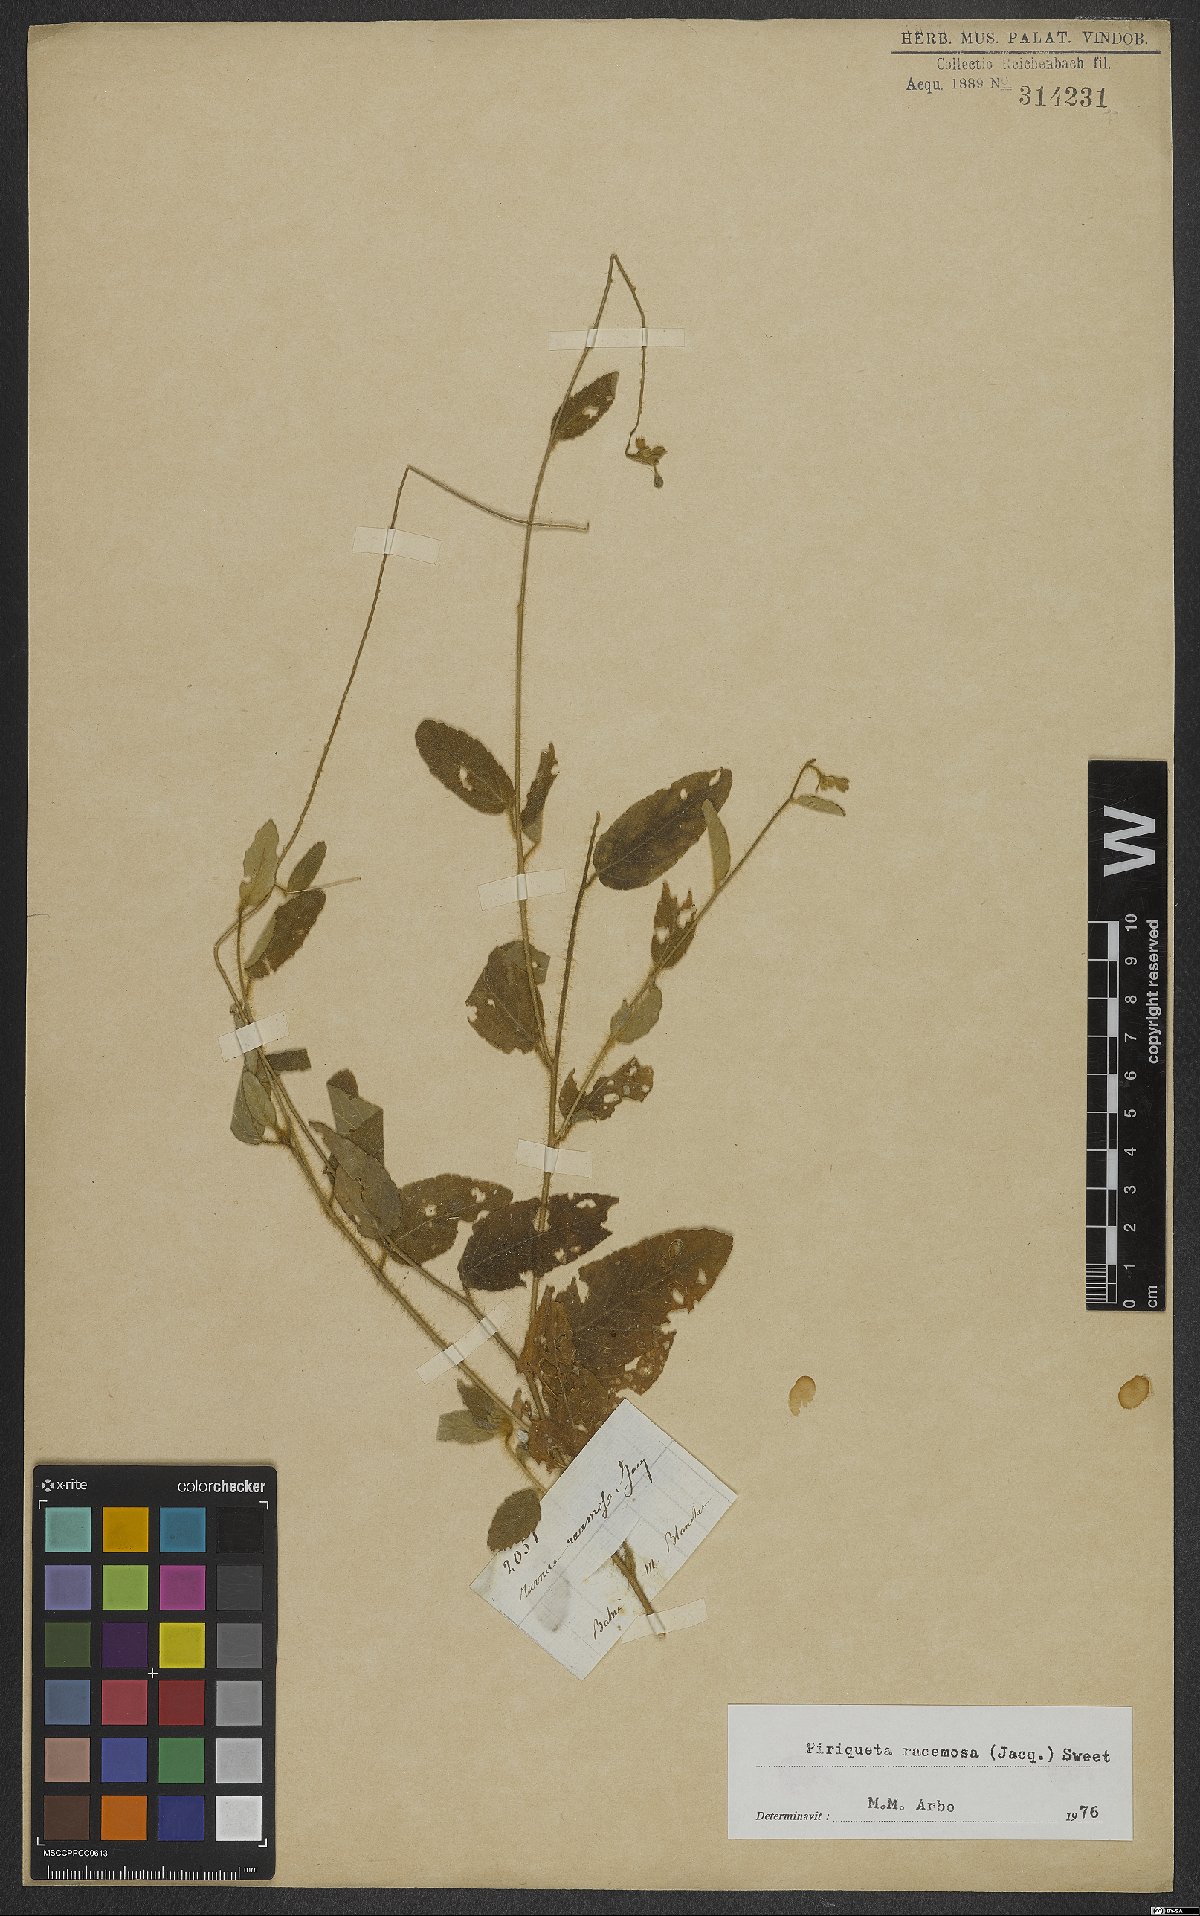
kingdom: Plantae
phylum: Tracheophyta
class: Magnoliopsida
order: Malpighiales
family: Turneraceae
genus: Piriqueta
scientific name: Piriqueta racemosa
